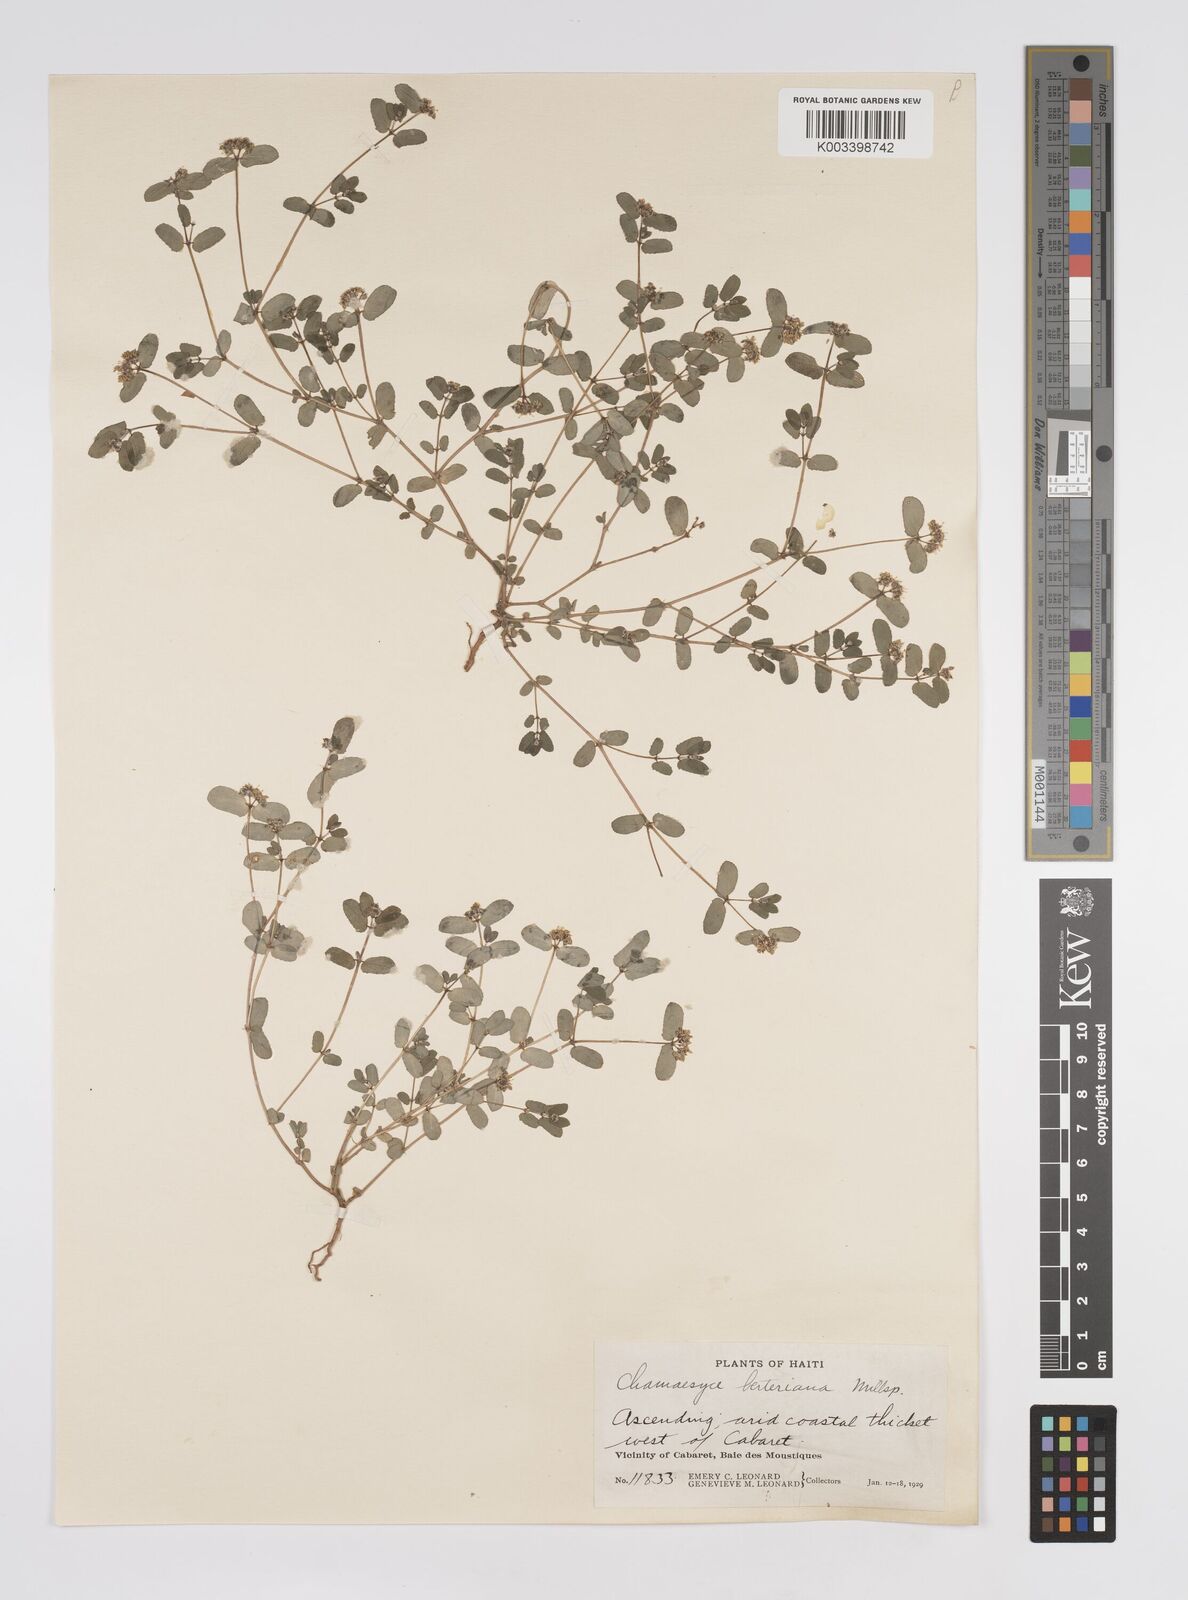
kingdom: Plantae
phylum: Tracheophyta
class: Magnoliopsida
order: Malpighiales
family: Euphorbiaceae
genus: Euphorbia
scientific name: Euphorbia berteroana
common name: Bertero's sandmat
